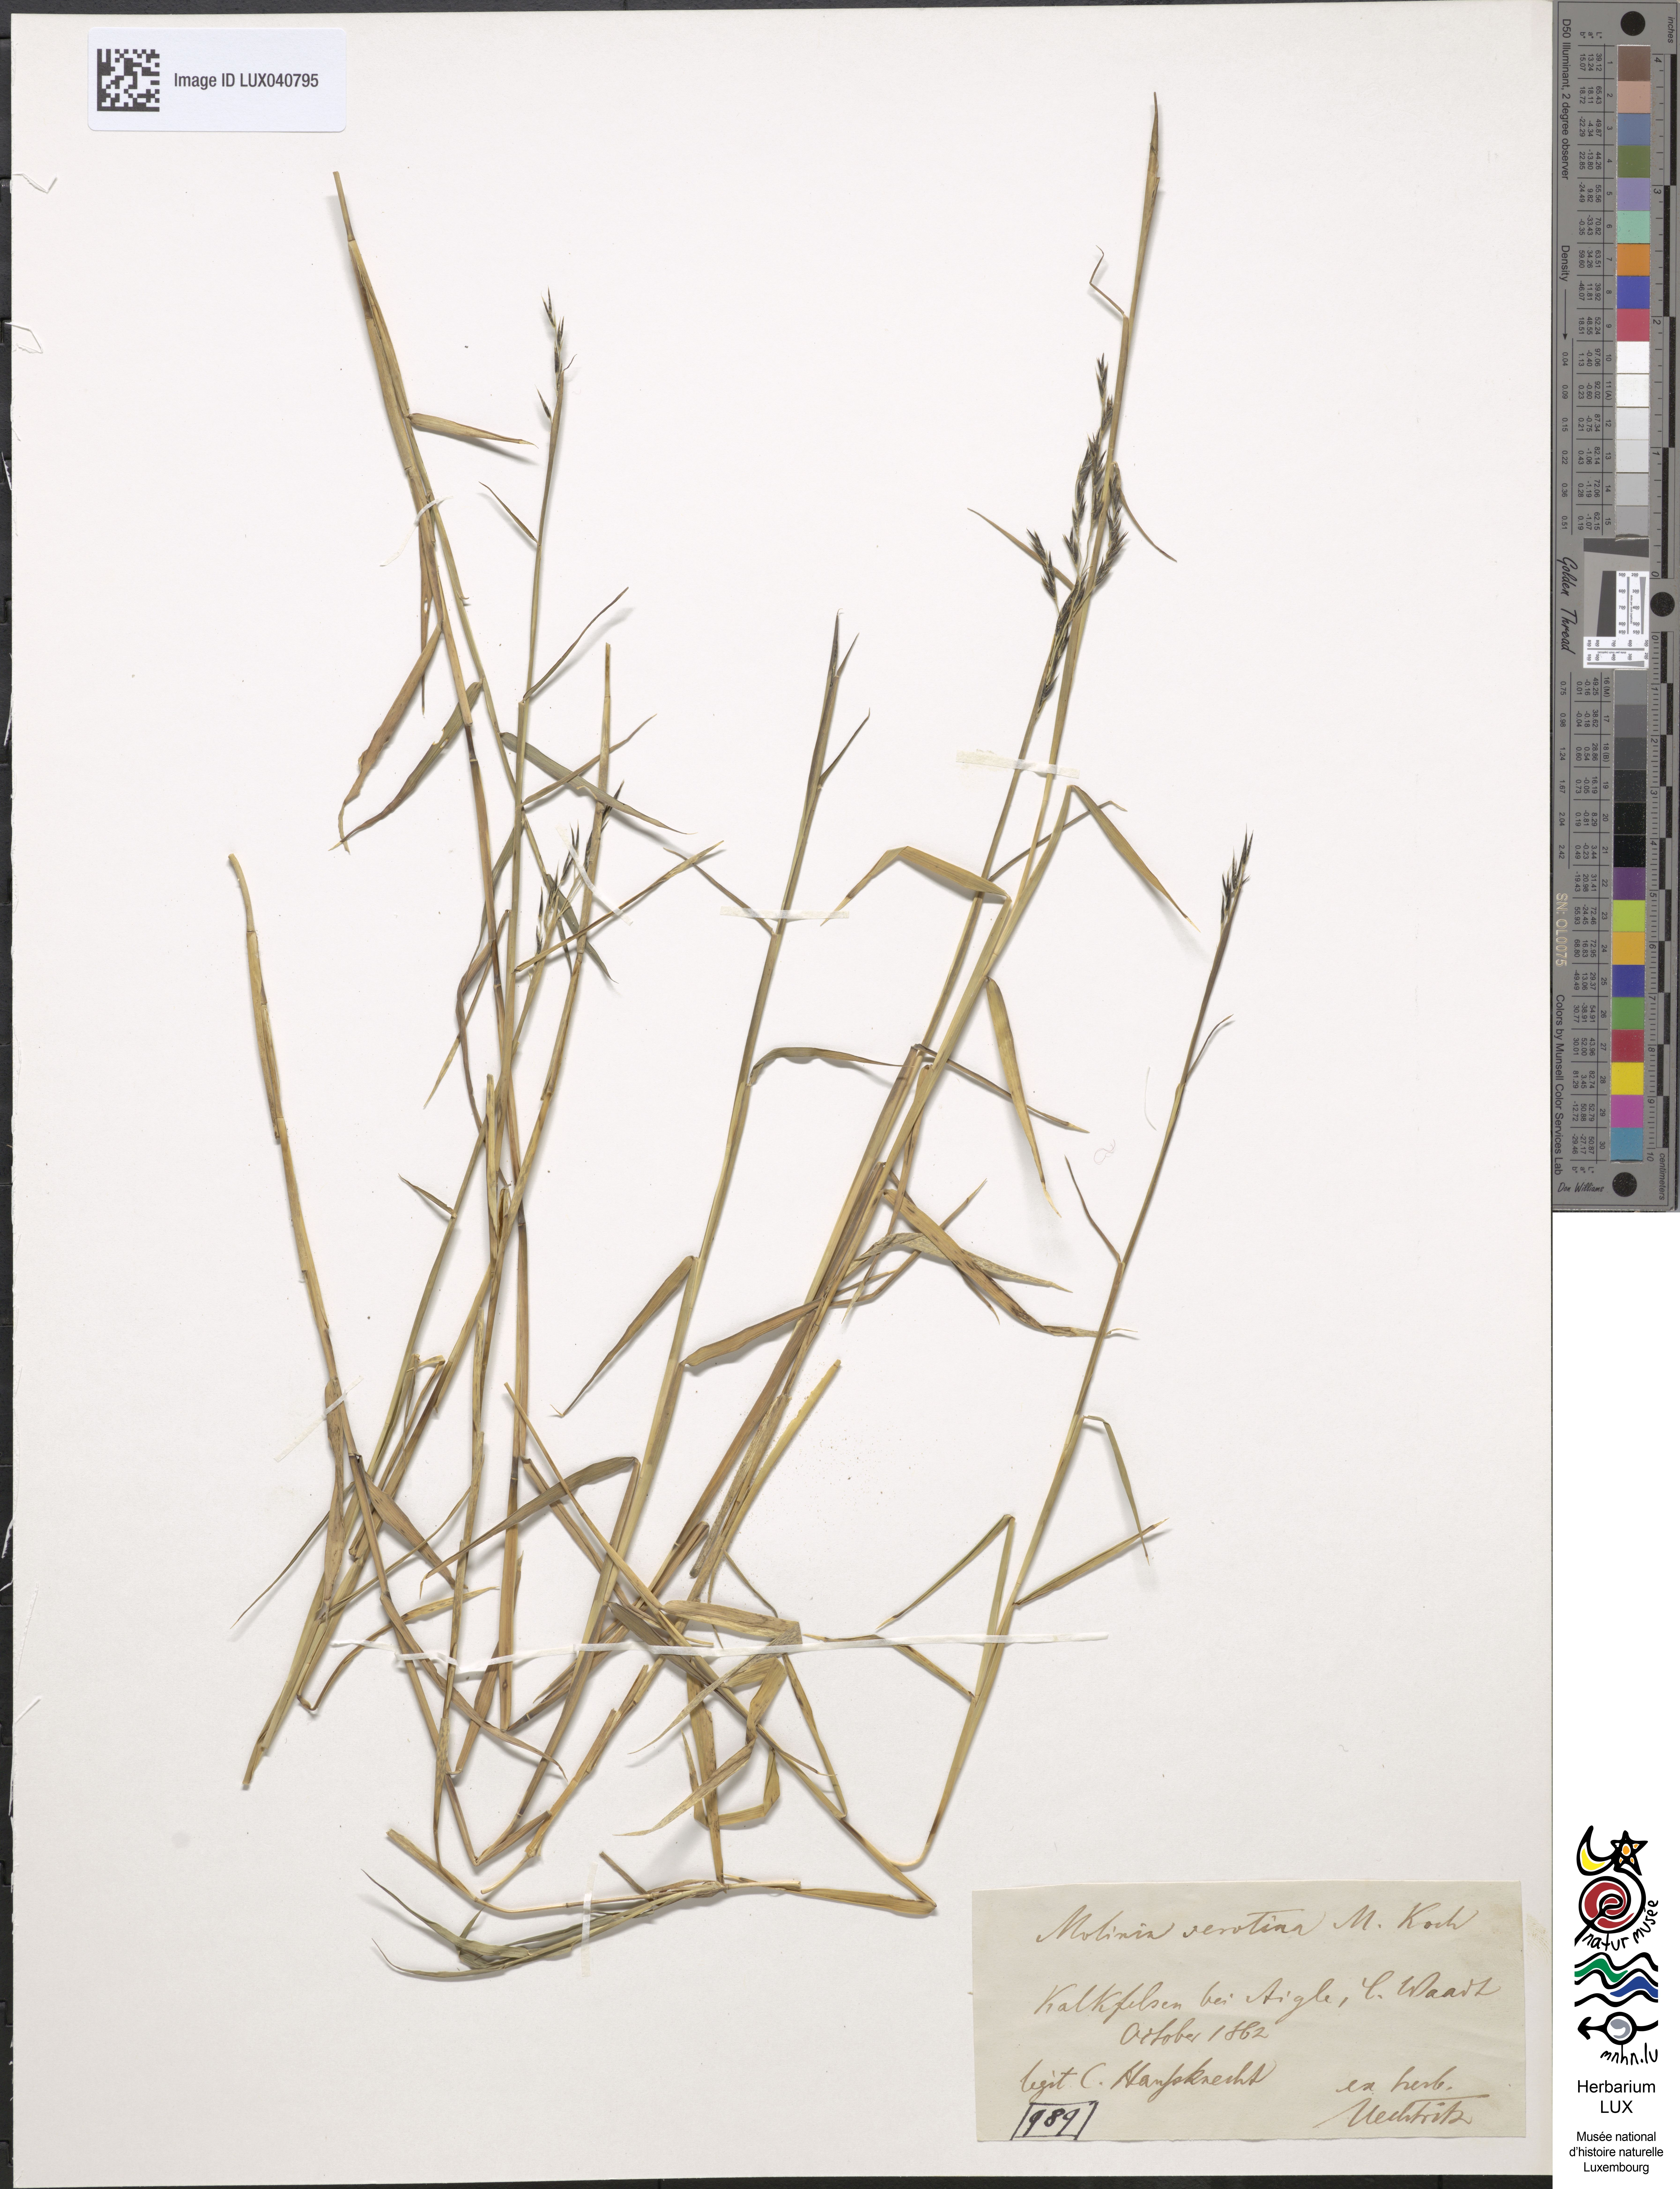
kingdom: Plantae
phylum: Tracheophyta
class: Liliopsida
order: Poales
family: Poaceae
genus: Cleistogenes
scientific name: Cleistogenes serotina
